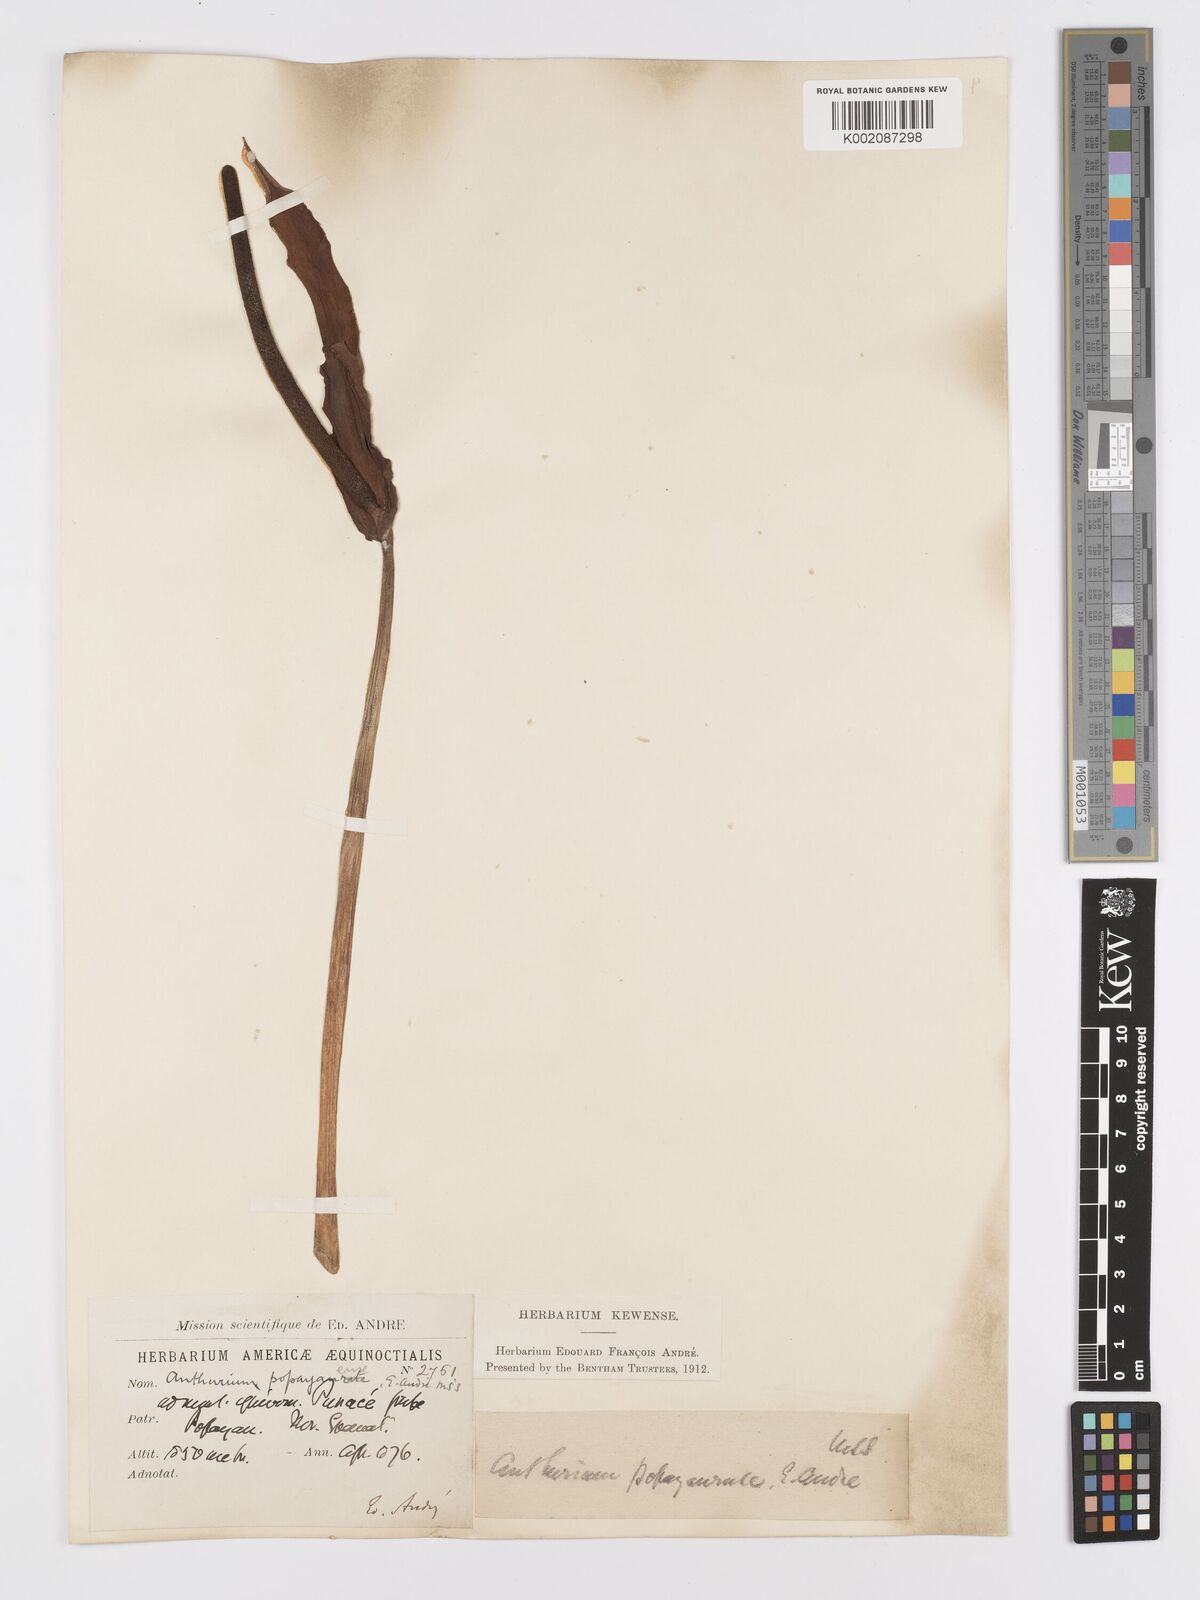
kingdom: Plantae
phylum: Tracheophyta
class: Liliopsida
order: Alismatales
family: Araceae
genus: Anthurium
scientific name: Anthurium
